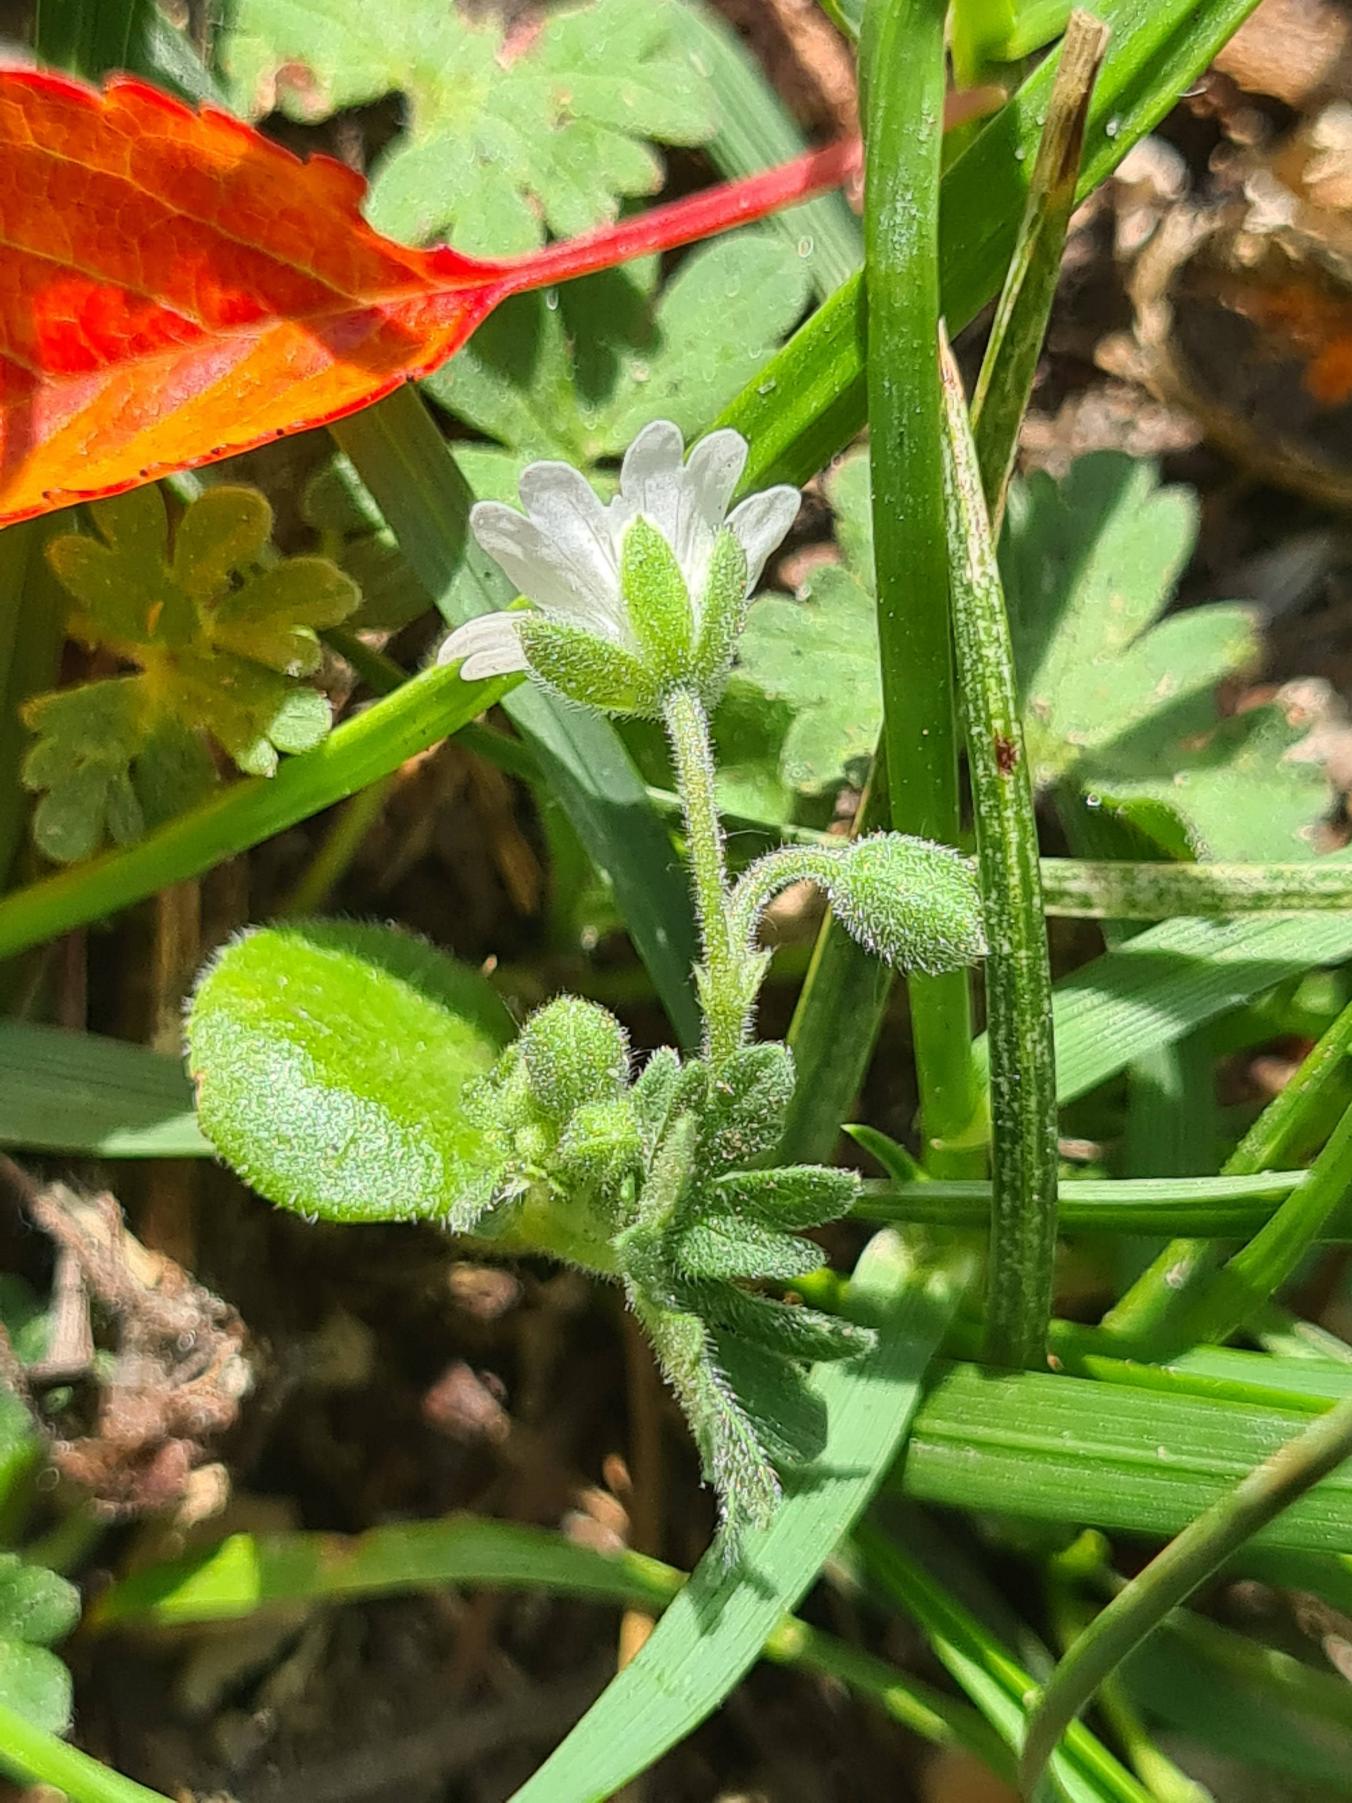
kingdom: Plantae
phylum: Tracheophyta
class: Magnoliopsida
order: Geraniales
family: Geraniaceae
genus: Geranium
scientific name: Geranium molle
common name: Blød storkenæb
